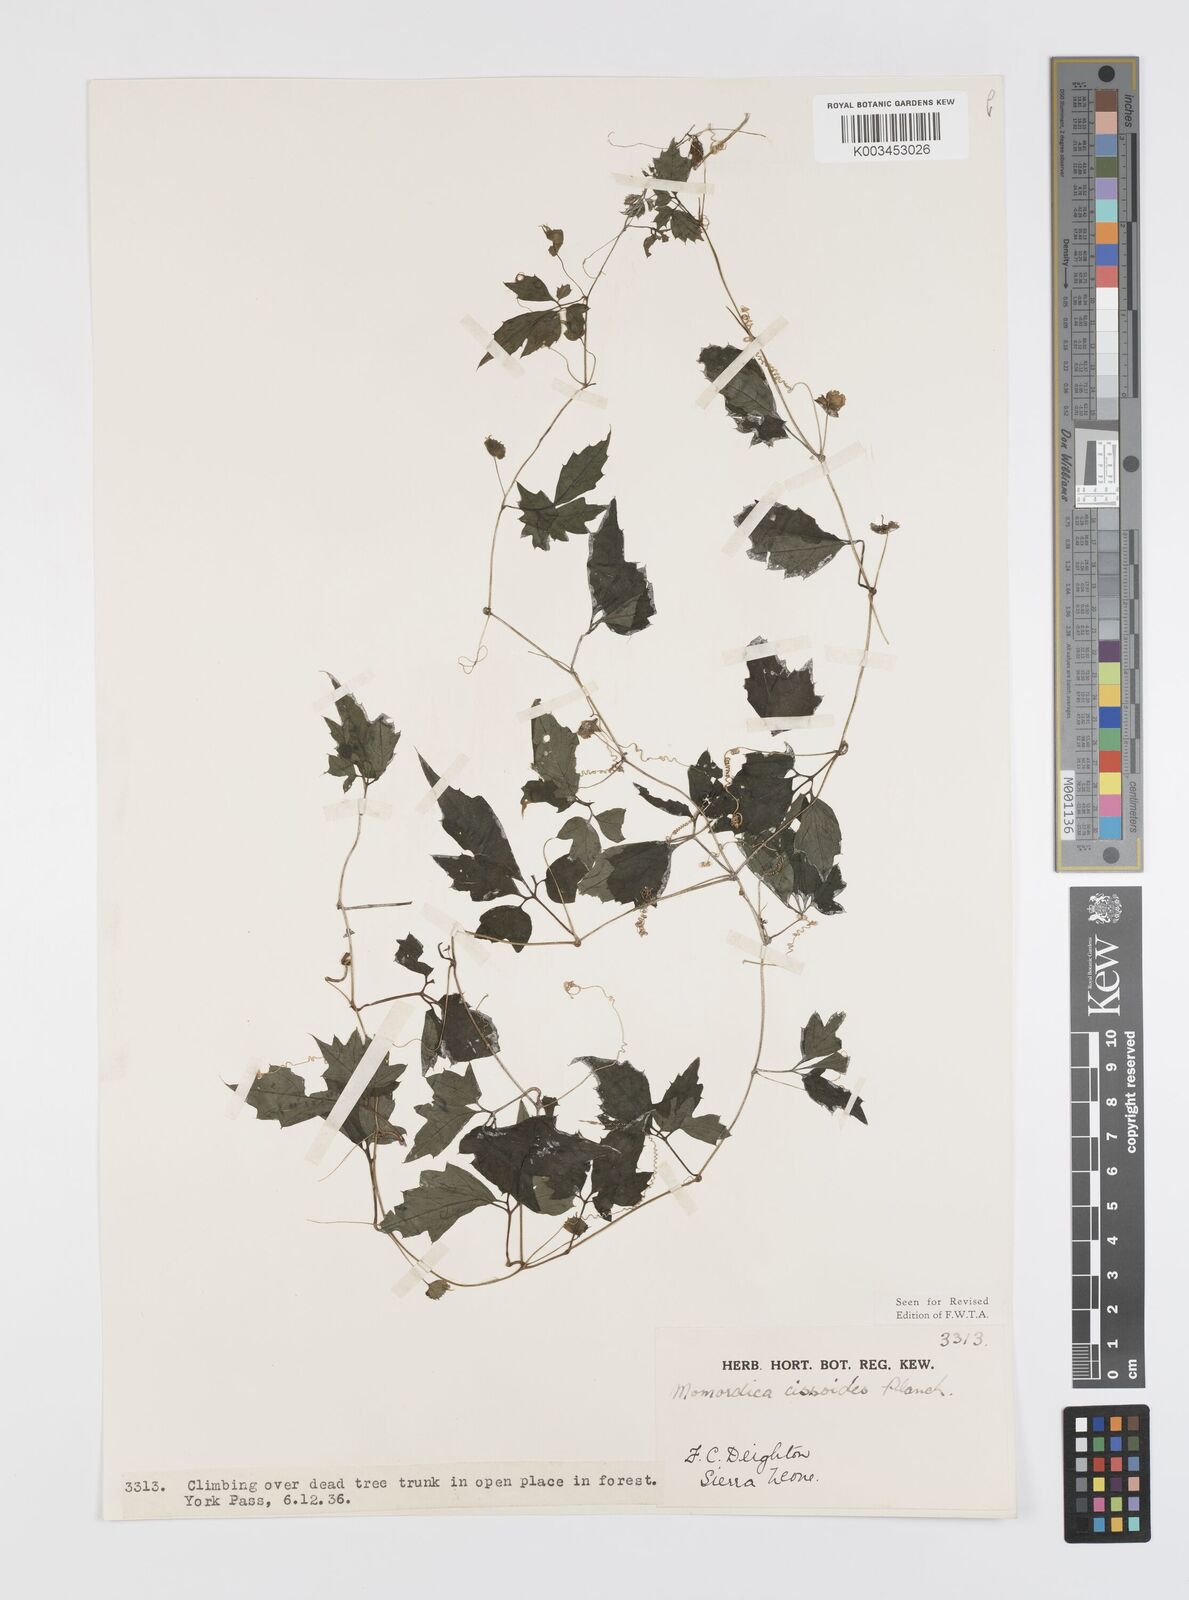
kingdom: Plantae
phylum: Tracheophyta
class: Magnoliopsida
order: Cucurbitales
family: Cucurbitaceae
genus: Momordica
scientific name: Momordica cissoides
